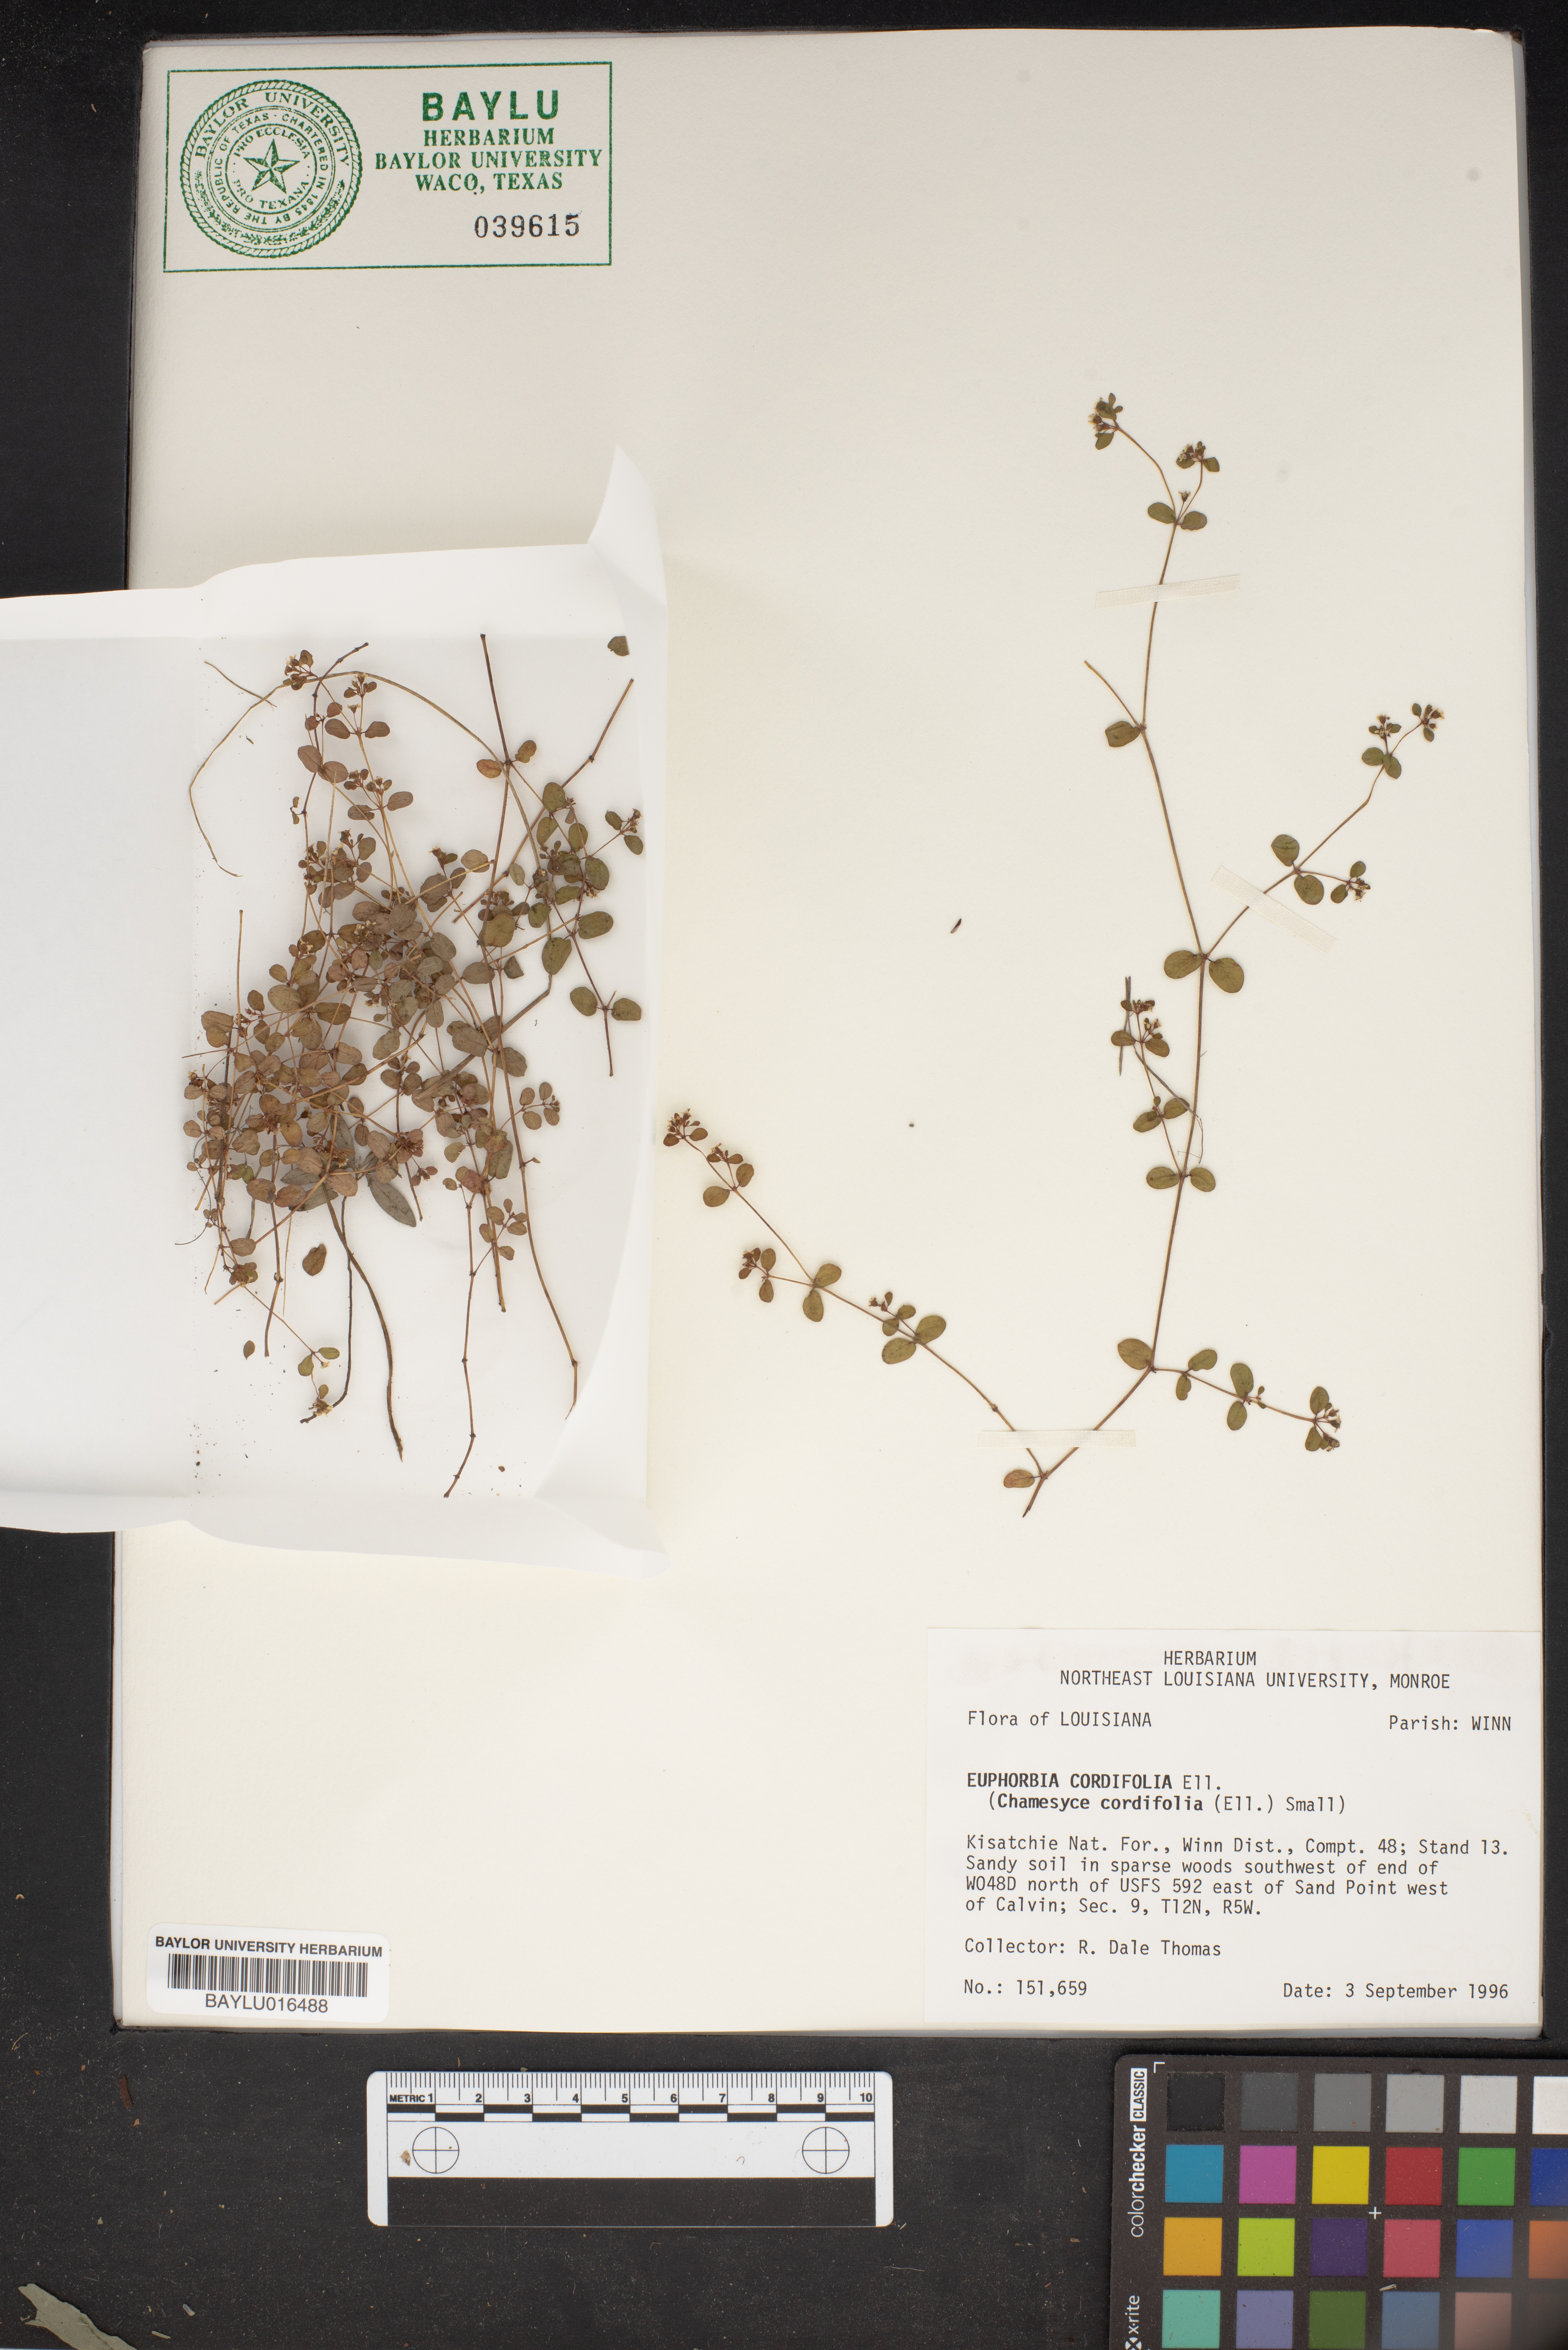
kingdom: Plantae
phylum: Tracheophyta
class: Magnoliopsida
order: Malpighiales
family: Euphorbiaceae
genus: Euphorbia
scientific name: Euphorbia cordifolia
